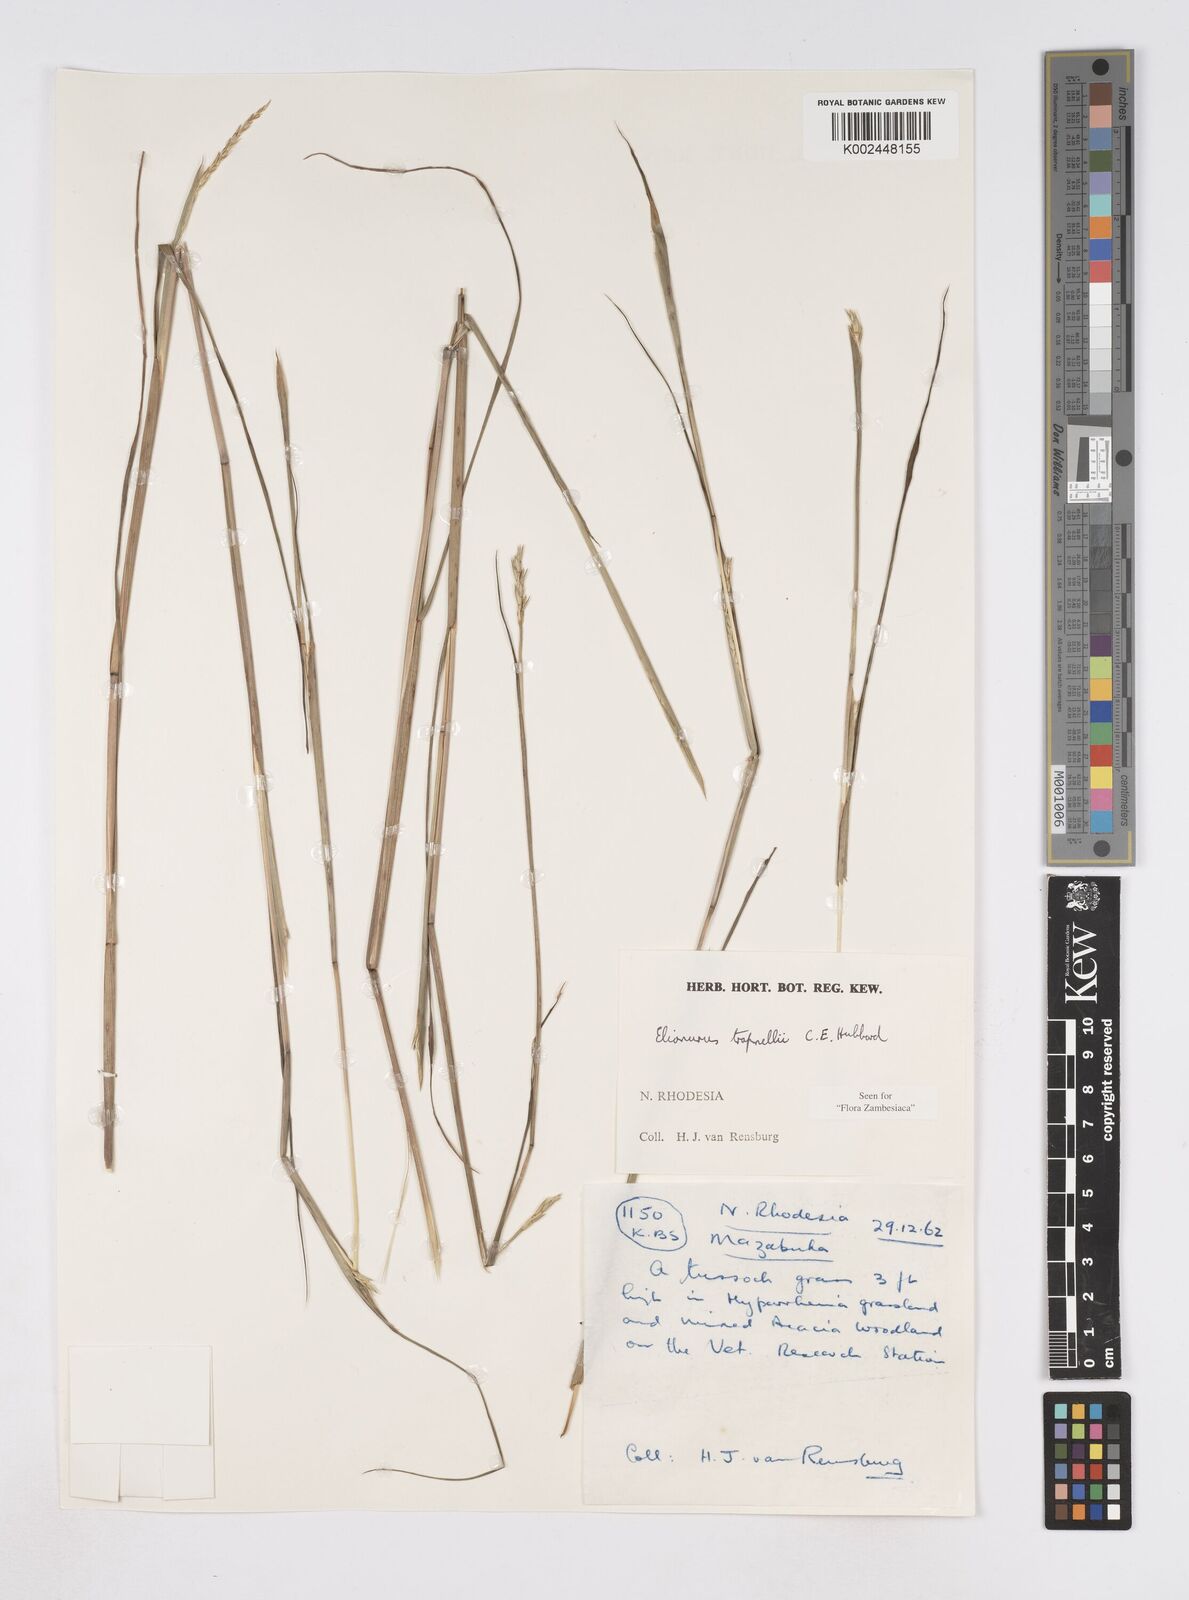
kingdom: Plantae
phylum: Tracheophyta
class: Liliopsida
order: Poales
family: Poaceae
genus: Elionurus
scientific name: Elionurus tripsacoides
